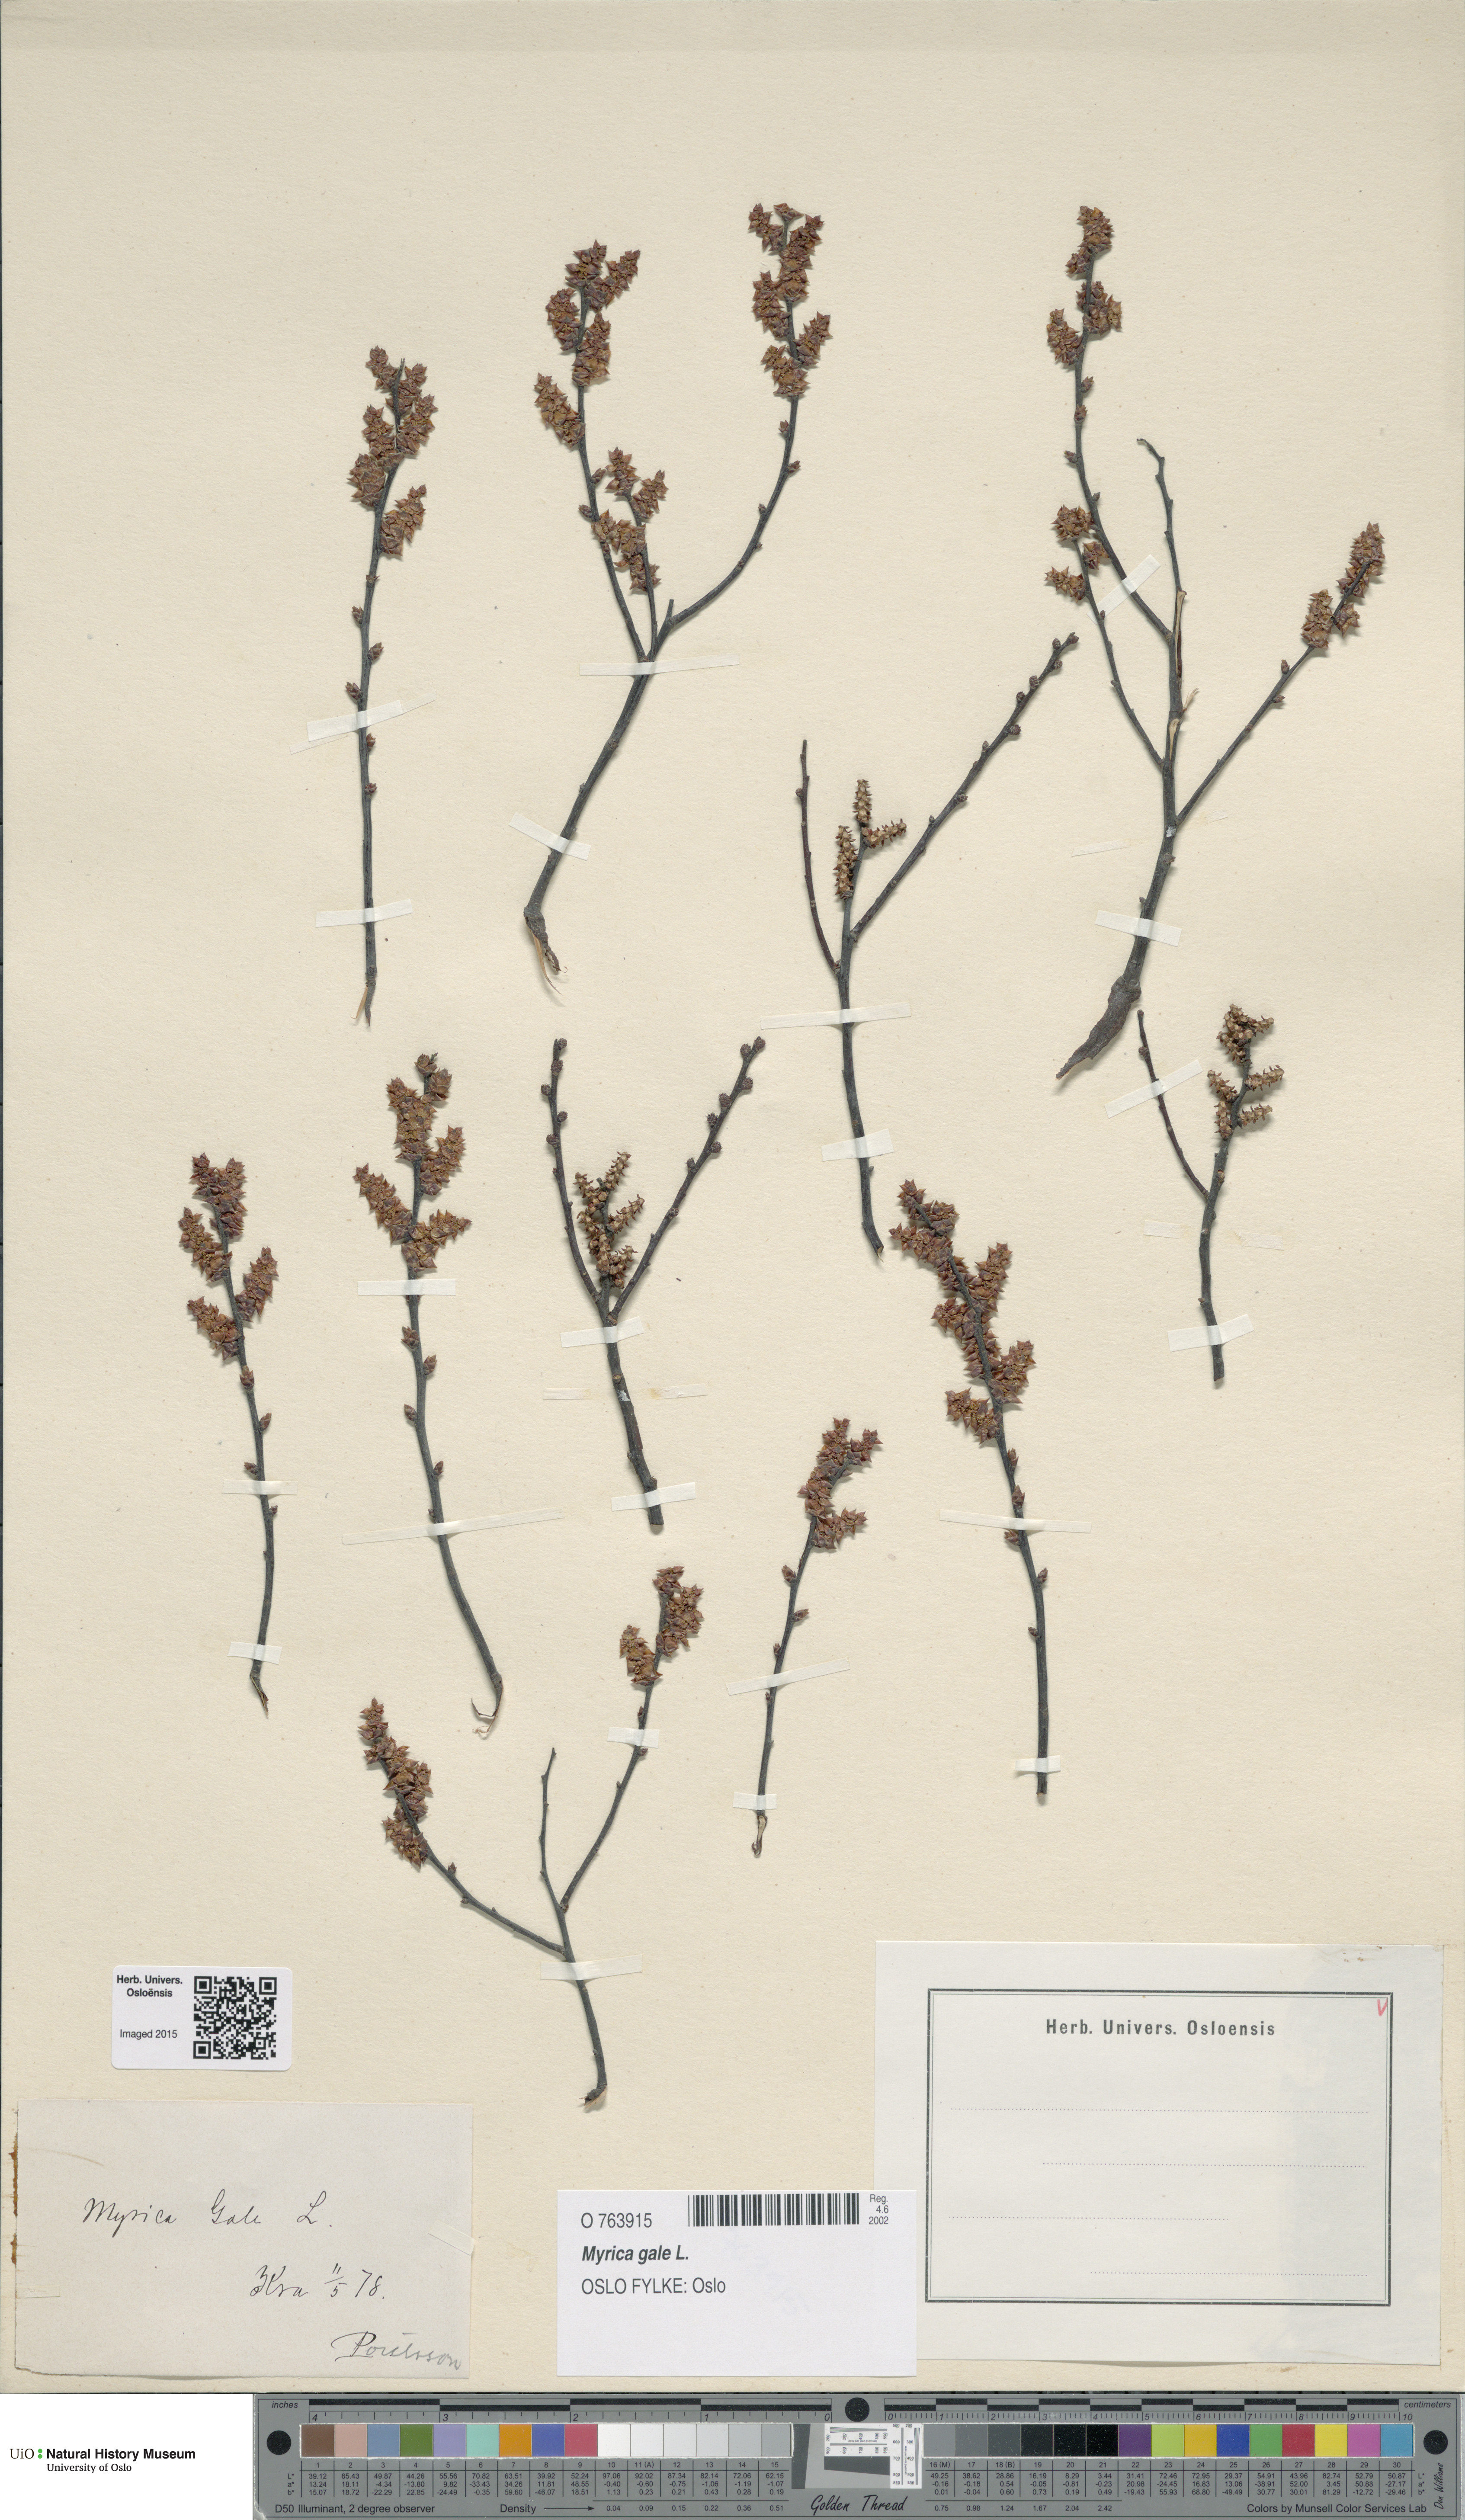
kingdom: Plantae
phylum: Tracheophyta
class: Magnoliopsida
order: Fagales
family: Myricaceae
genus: Myrica
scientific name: Myrica gale
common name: Sweet gale
